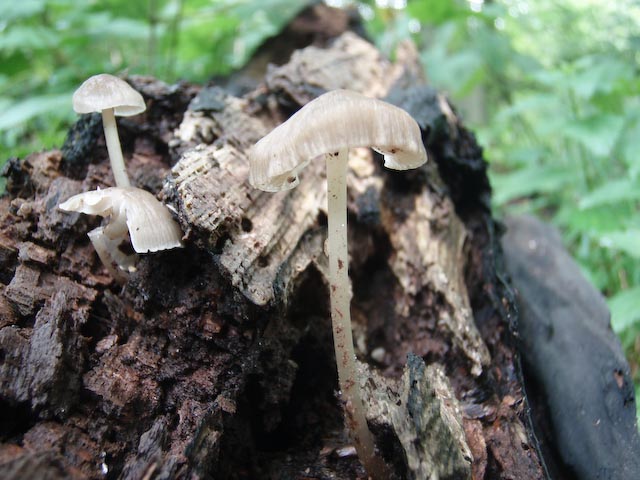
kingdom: Fungi
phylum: Basidiomycota
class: Agaricomycetes
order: Agaricales
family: Mycenaceae
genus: Mycena
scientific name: Mycena galericulata
